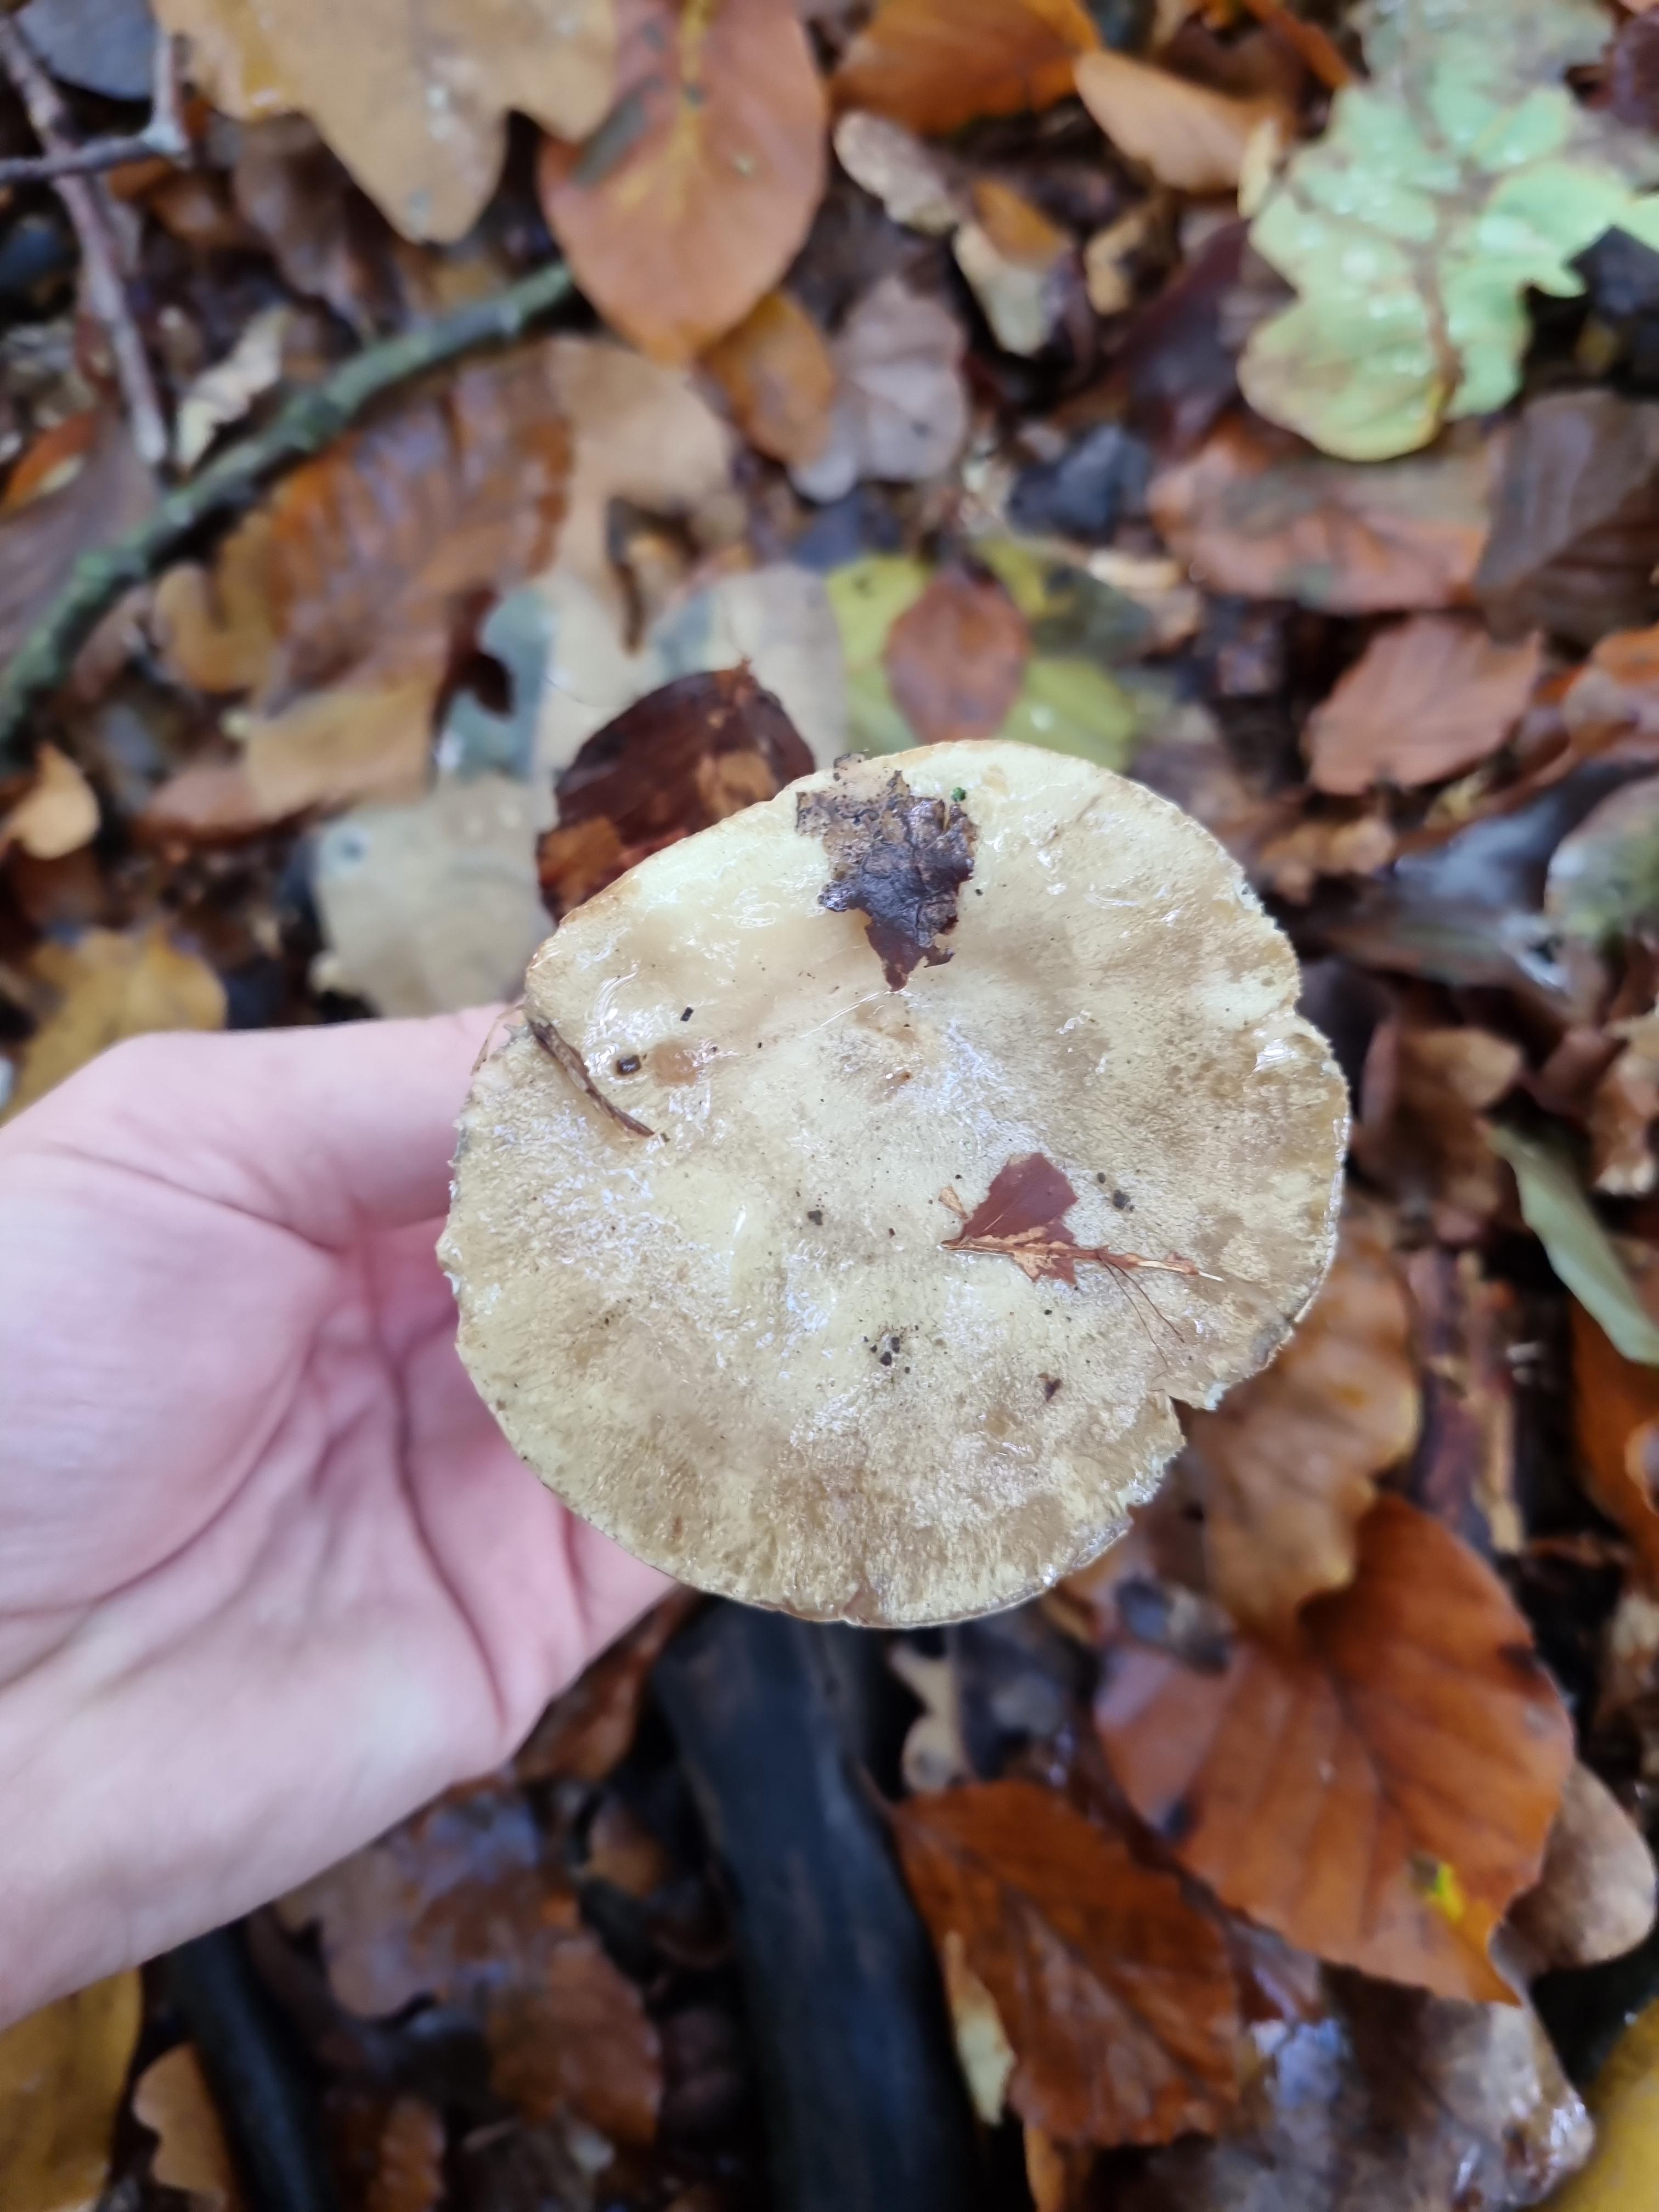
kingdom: Fungi
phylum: Basidiomycota
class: Agaricomycetes
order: Russulales
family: Russulaceae
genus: Lactarius
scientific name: Lactarius
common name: mælkehat
